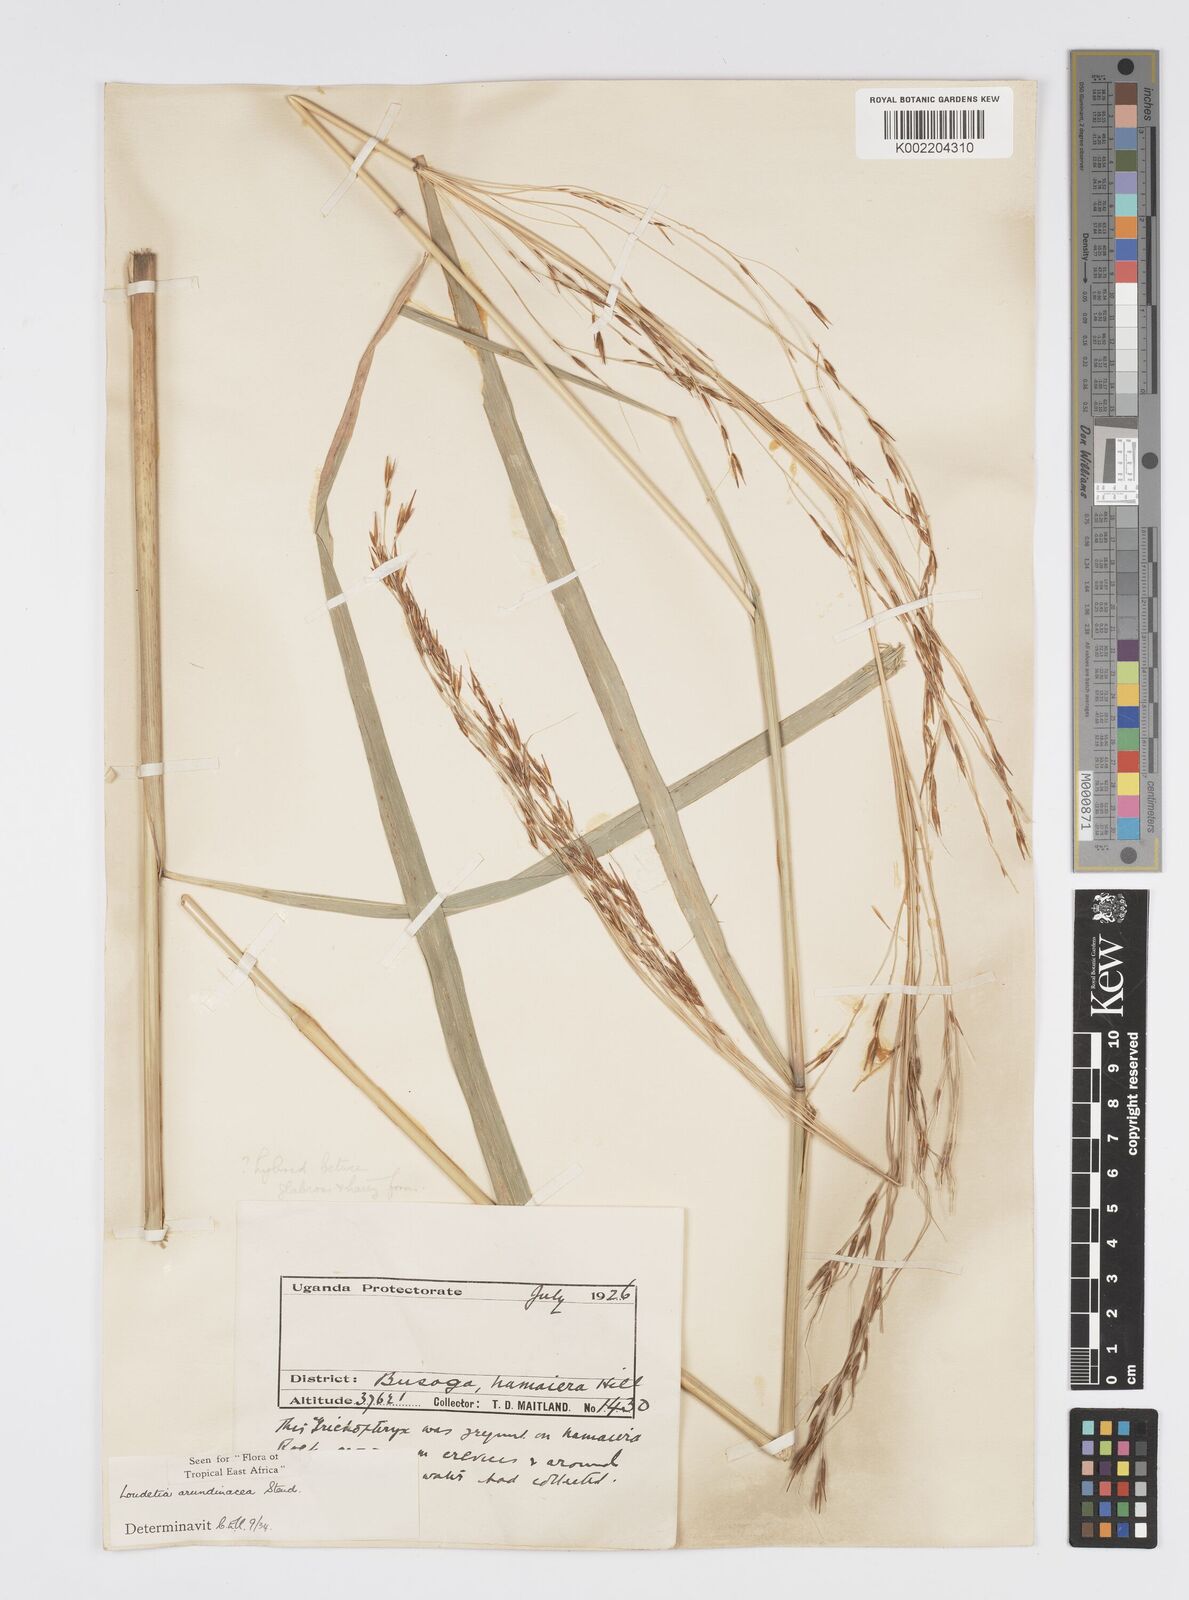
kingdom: Plantae
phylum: Tracheophyta
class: Liliopsida
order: Poales
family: Poaceae
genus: Loudetia
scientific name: Loudetia arundinacea
